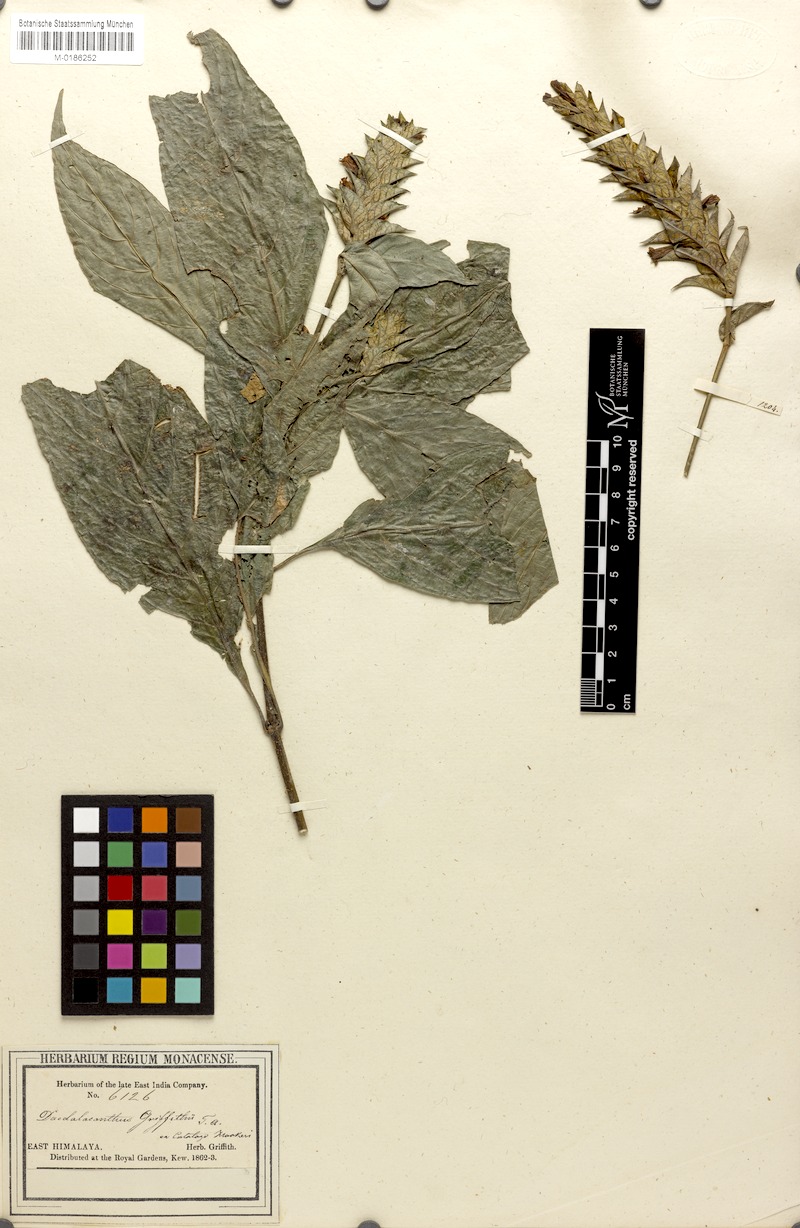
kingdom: Plantae
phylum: Tracheophyta
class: Magnoliopsida
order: Lamiales
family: Acanthaceae
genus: Eranthemum
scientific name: Eranthemum griffithii
